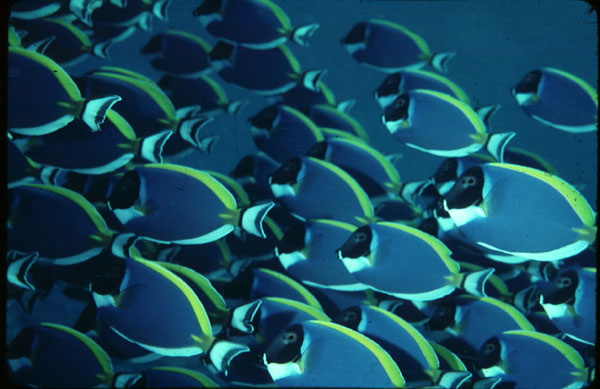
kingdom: Animalia
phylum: Chordata
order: Perciformes
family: Acanthuridae
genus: Acanthurus
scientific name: Acanthurus leucosternon
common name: Blue surgeonfish
